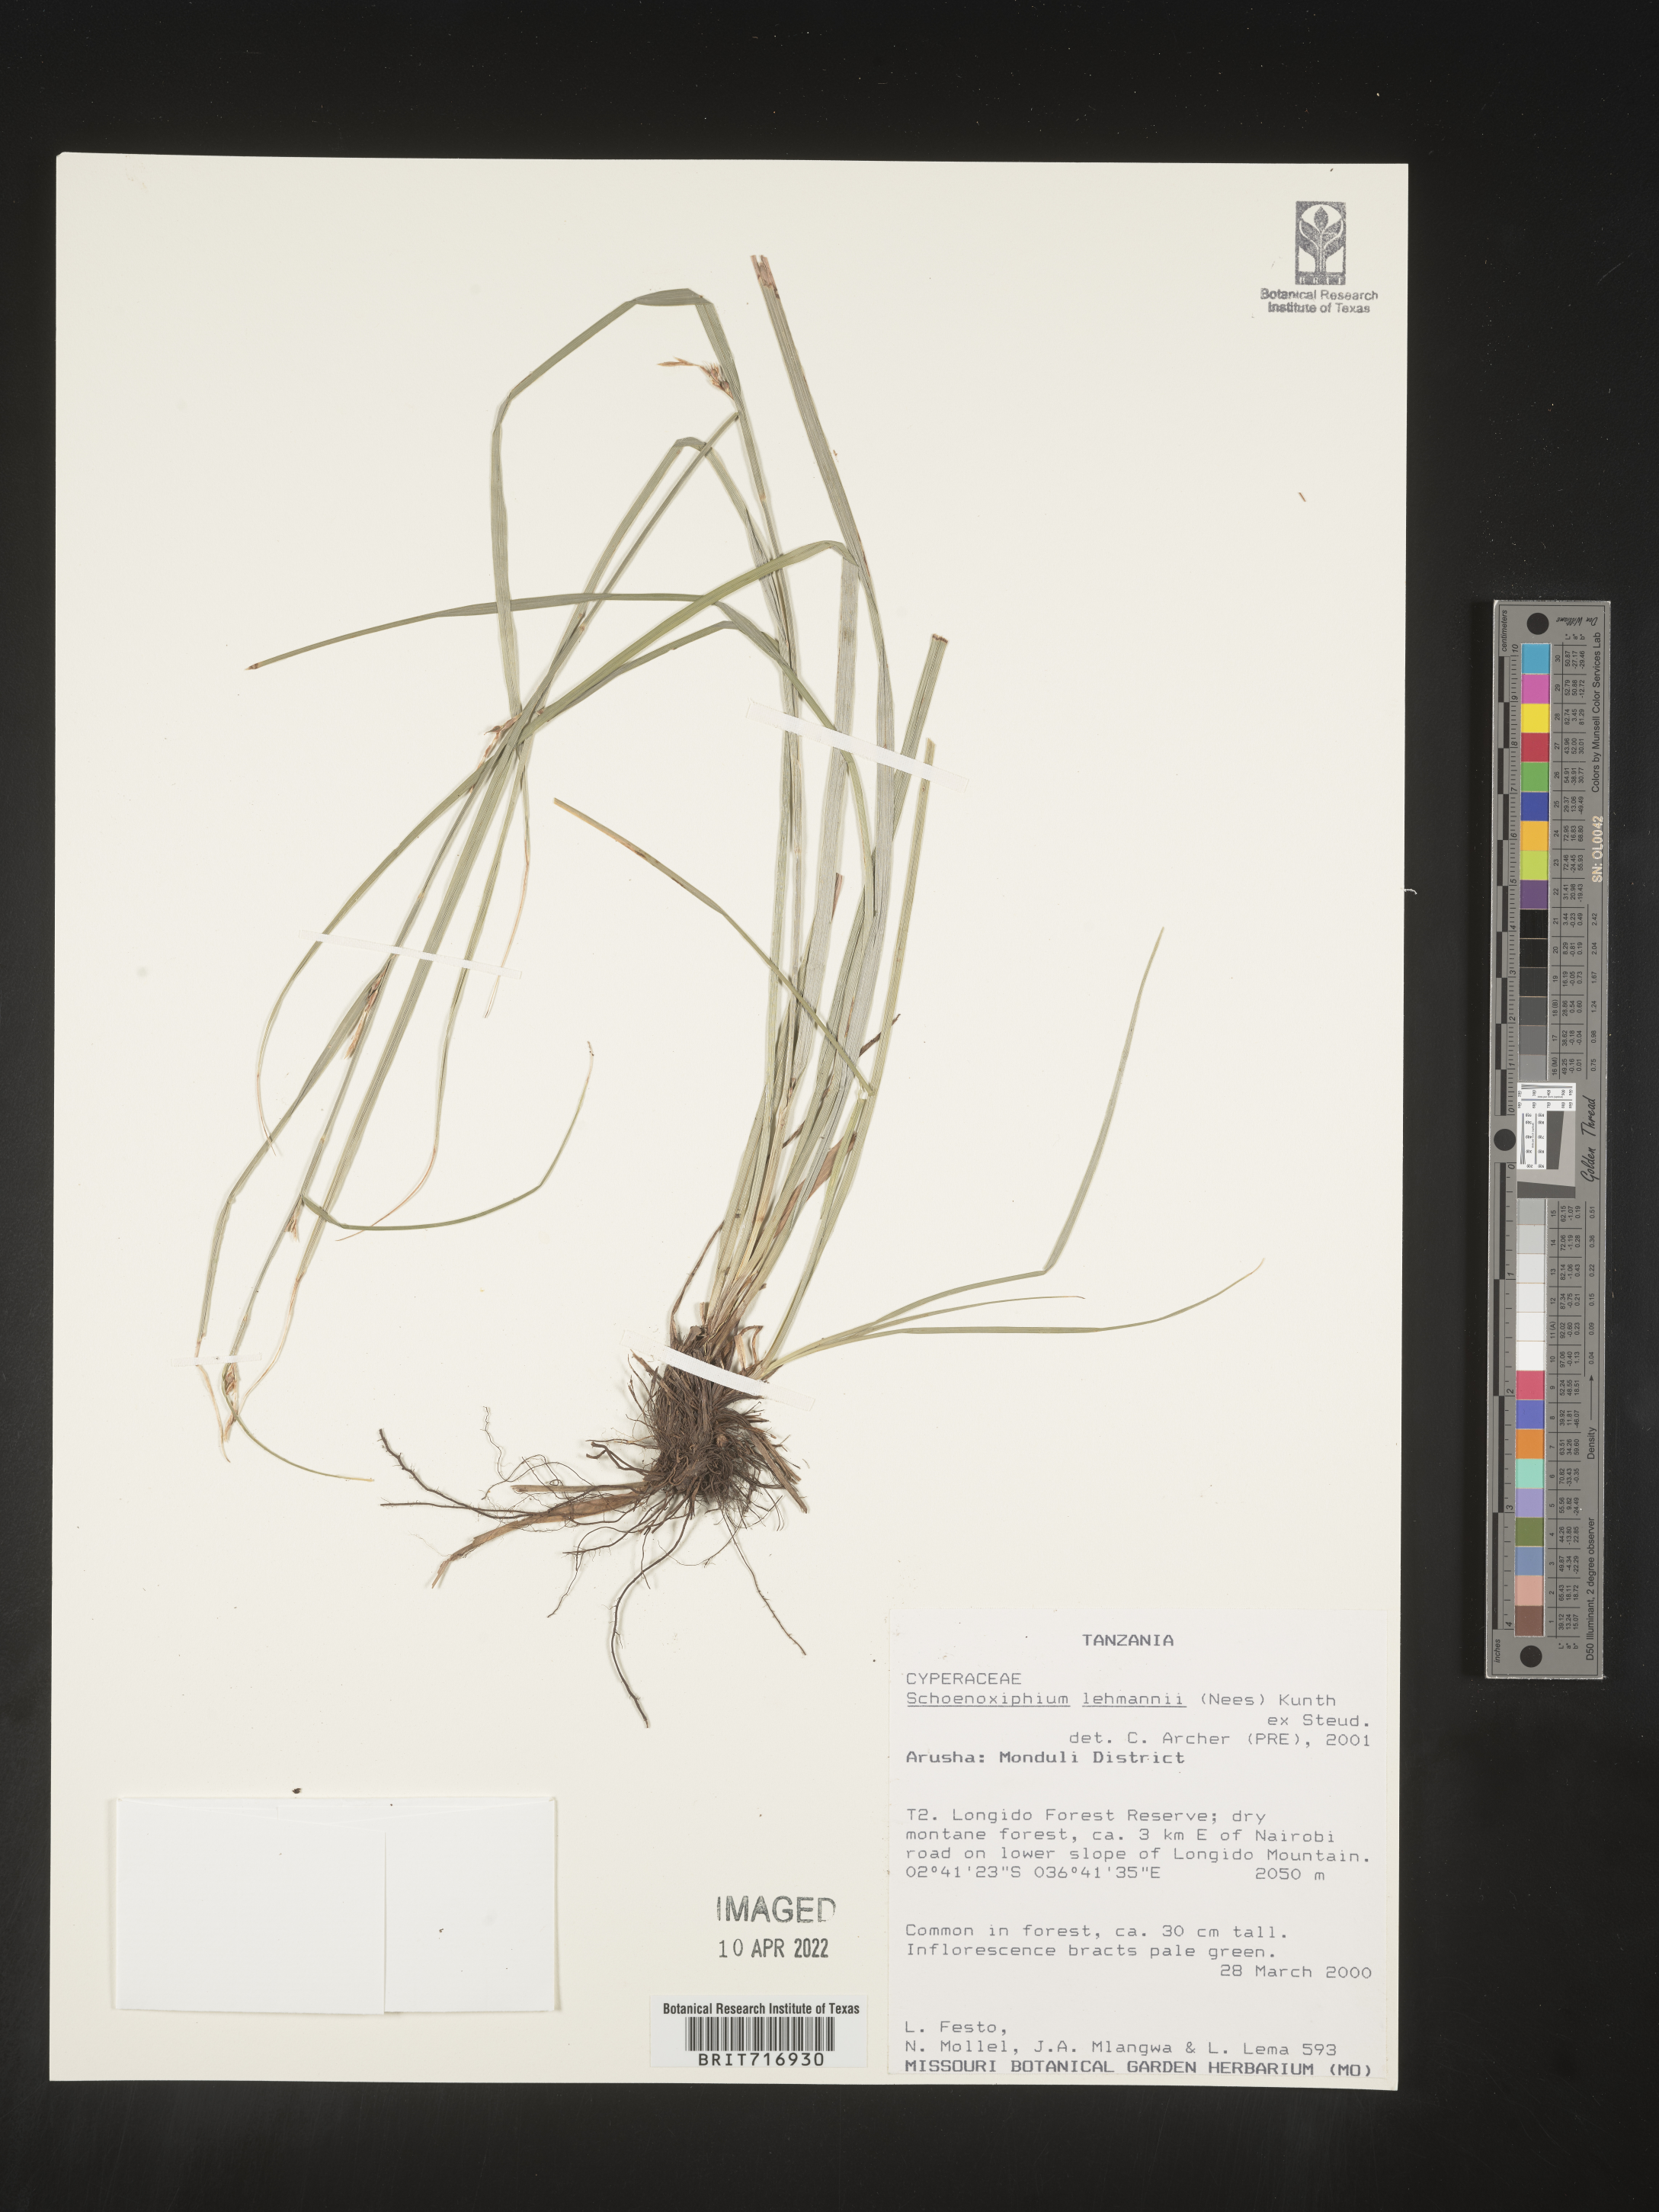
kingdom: Plantae
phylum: Tracheophyta
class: Liliopsida
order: Poales
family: Cyperaceae
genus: Carex
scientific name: Carex
